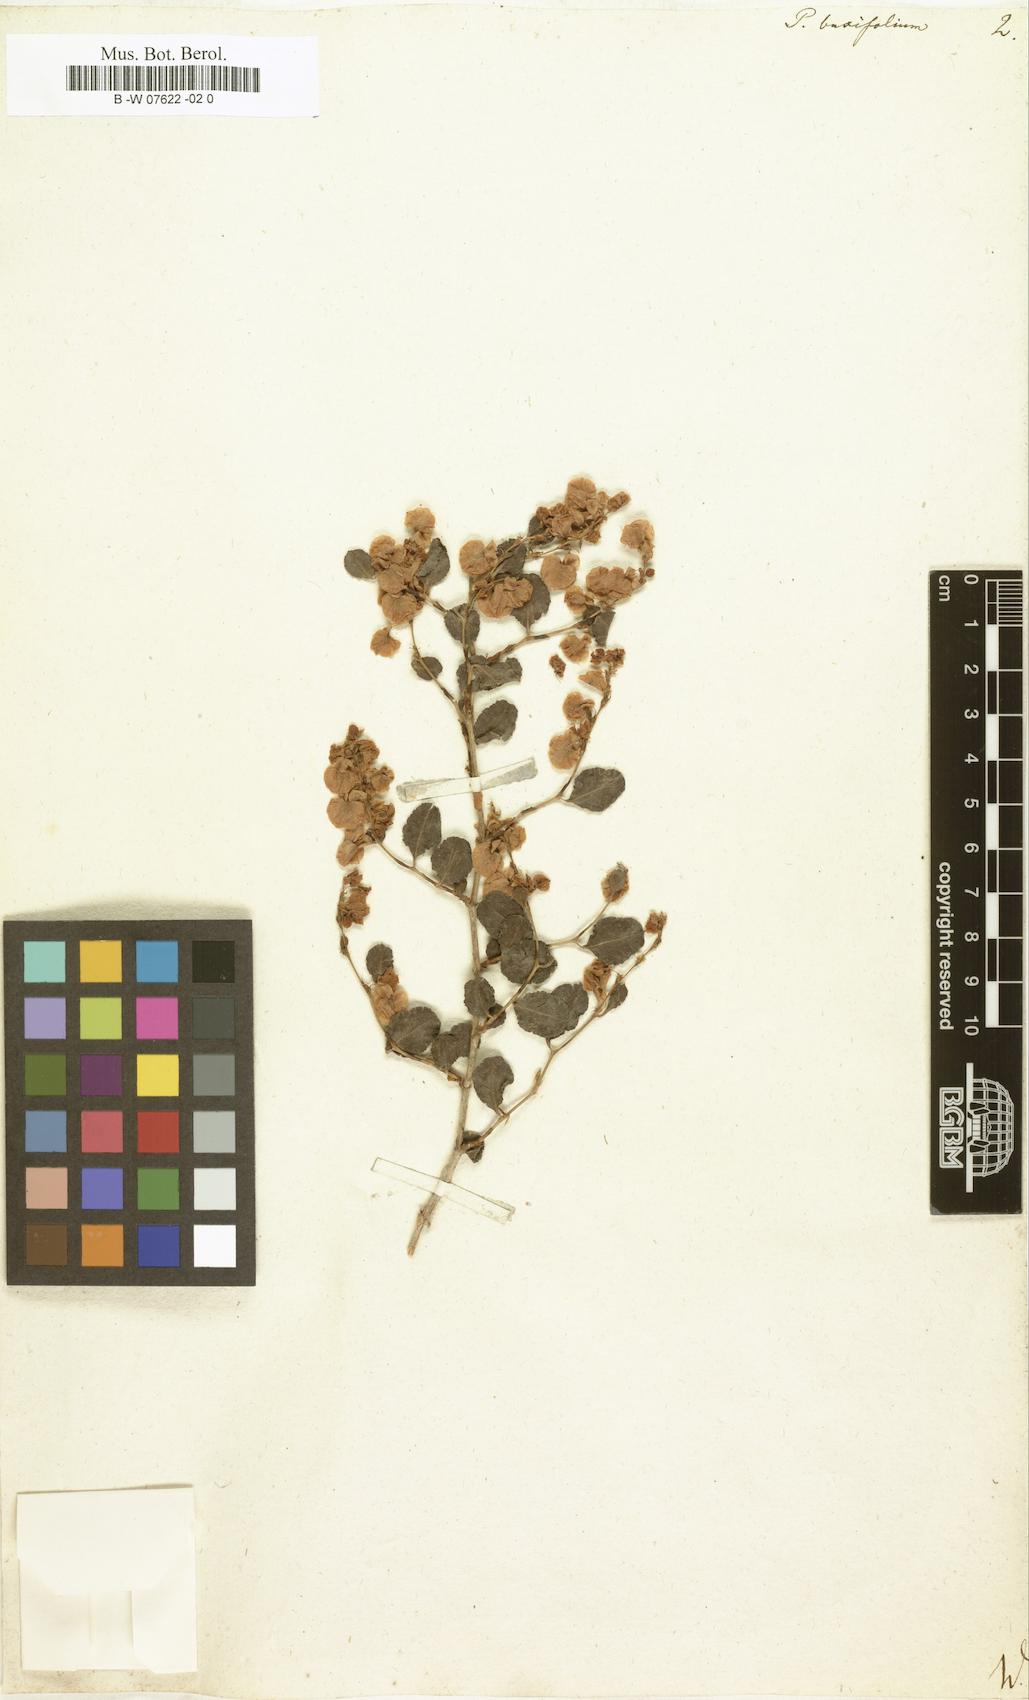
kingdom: Plantae
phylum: Tracheophyta
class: Magnoliopsida
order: Caryophyllales
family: Polygonaceae
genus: Polygonum
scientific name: Polygonum aviculare
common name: Prostrate knotweed
